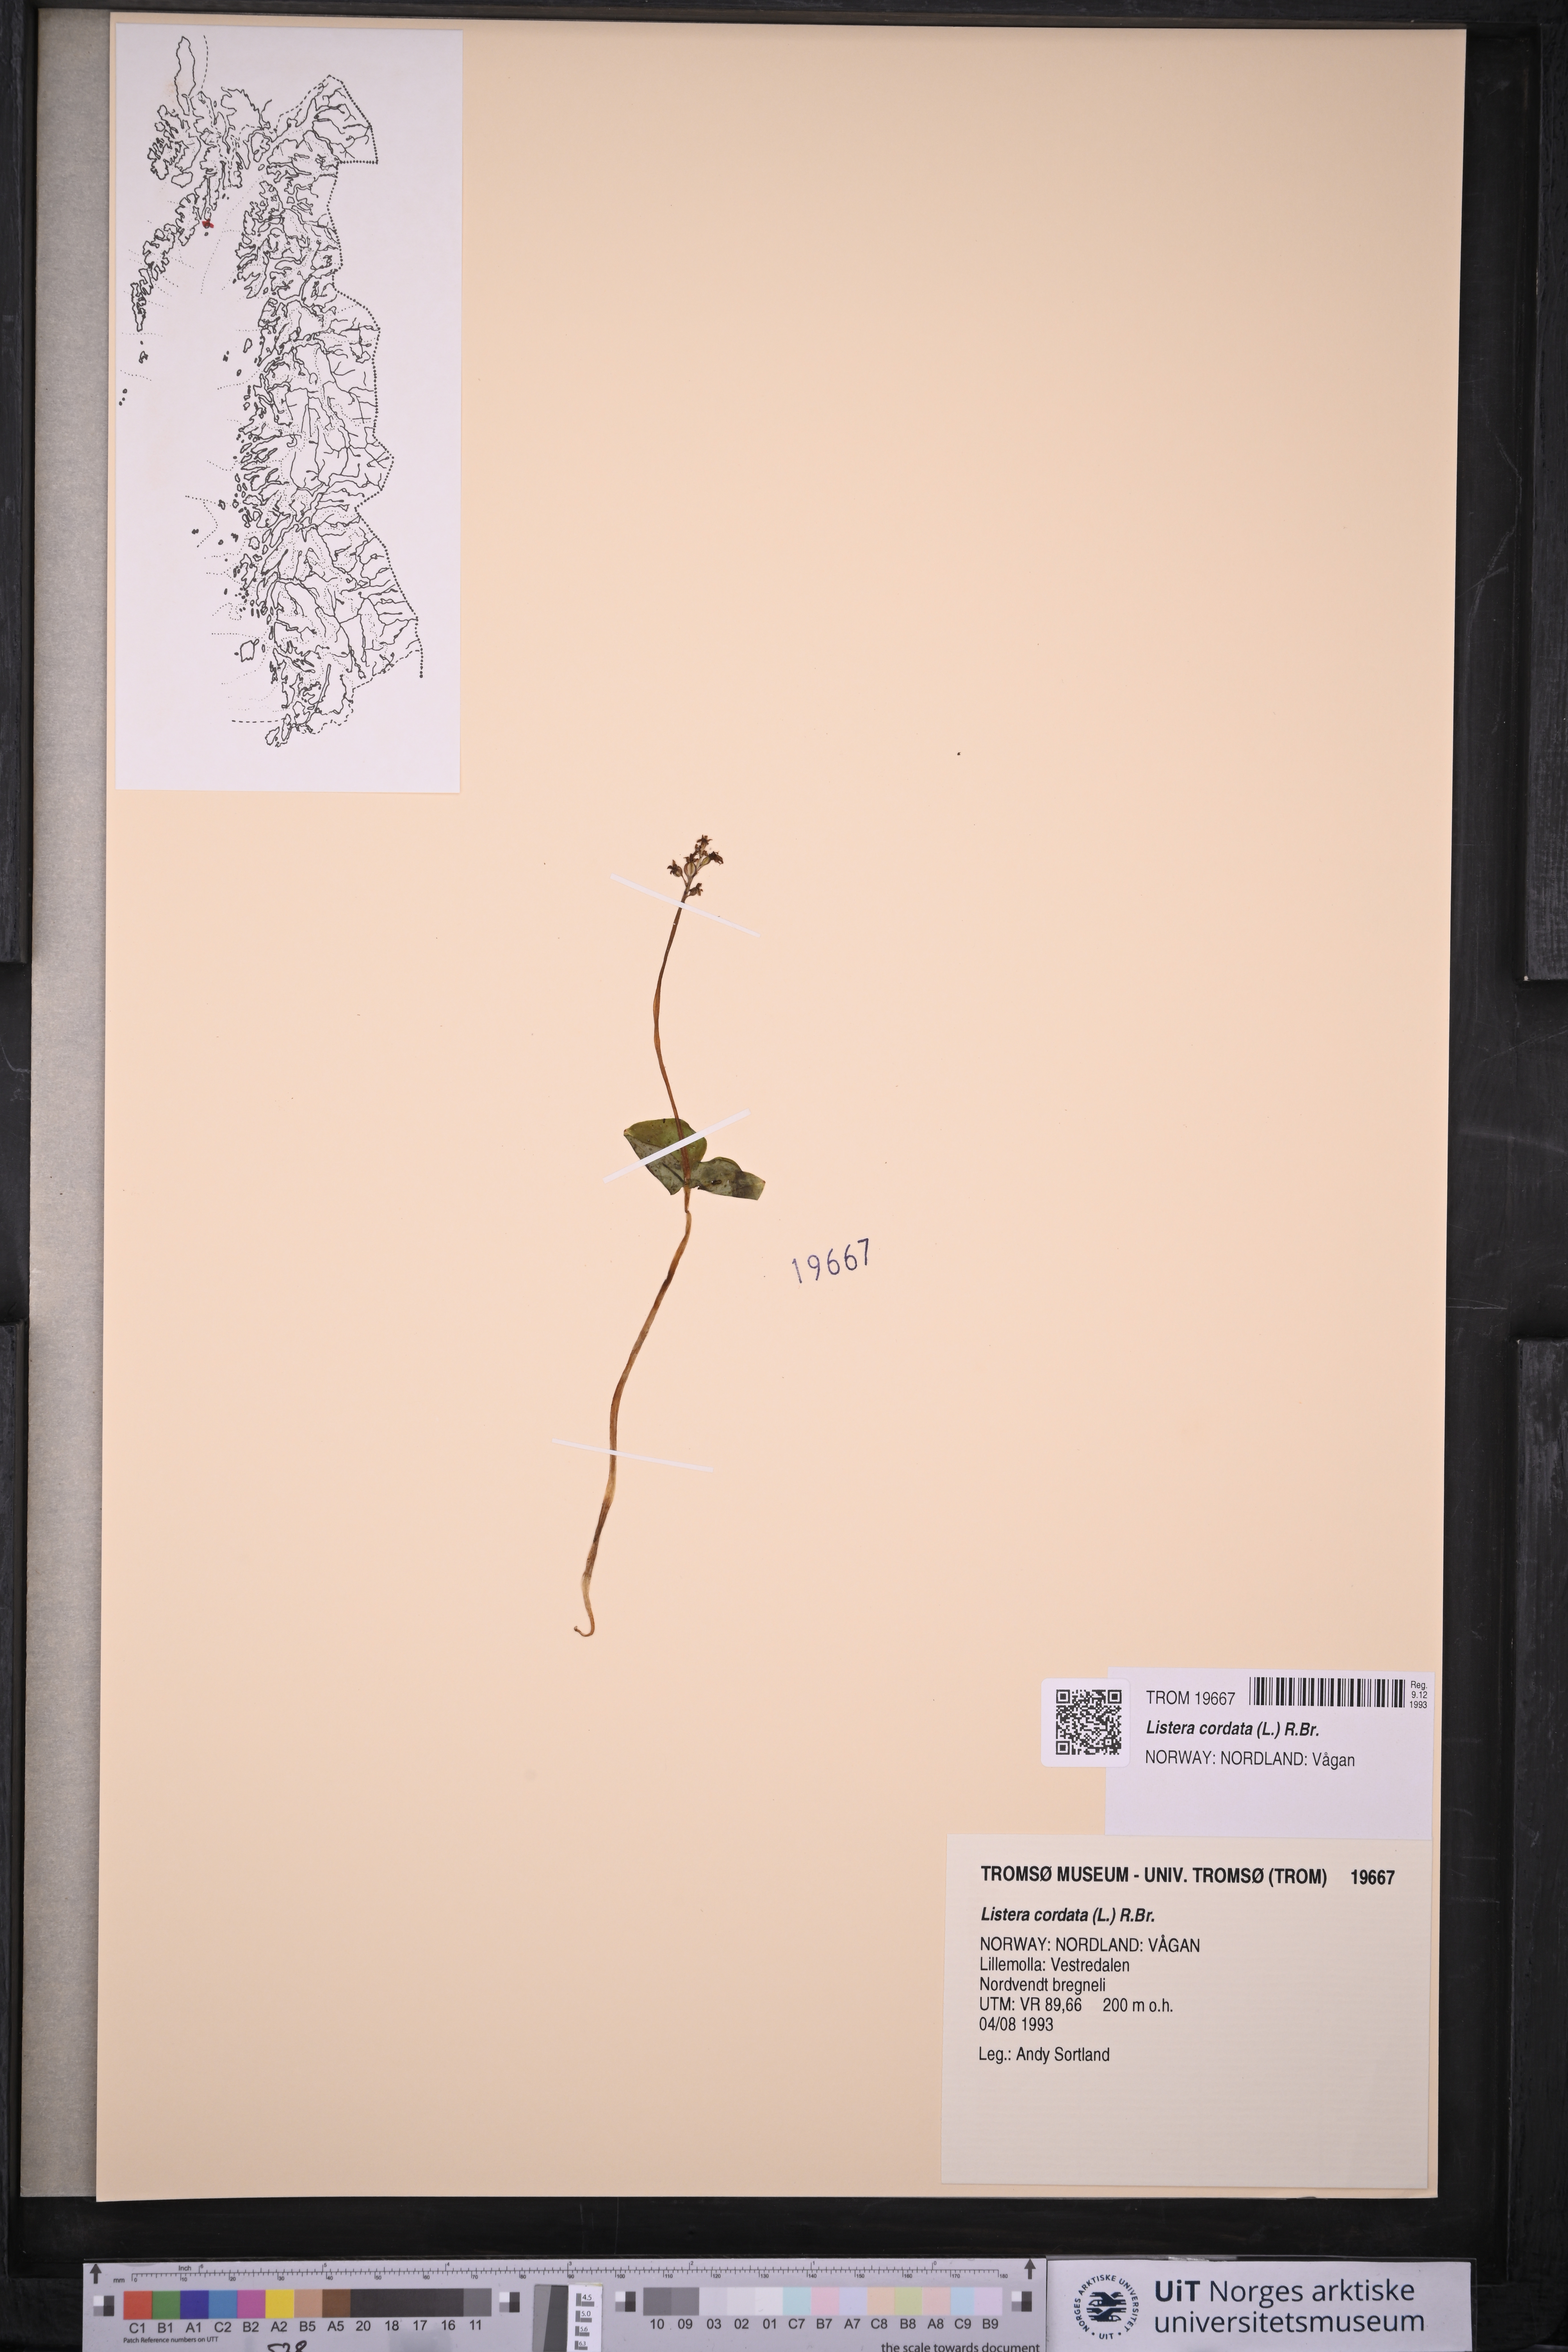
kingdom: Plantae
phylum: Tracheophyta
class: Liliopsida
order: Asparagales
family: Orchidaceae
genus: Neottia
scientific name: Neottia cordata
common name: Lesser twayblade
